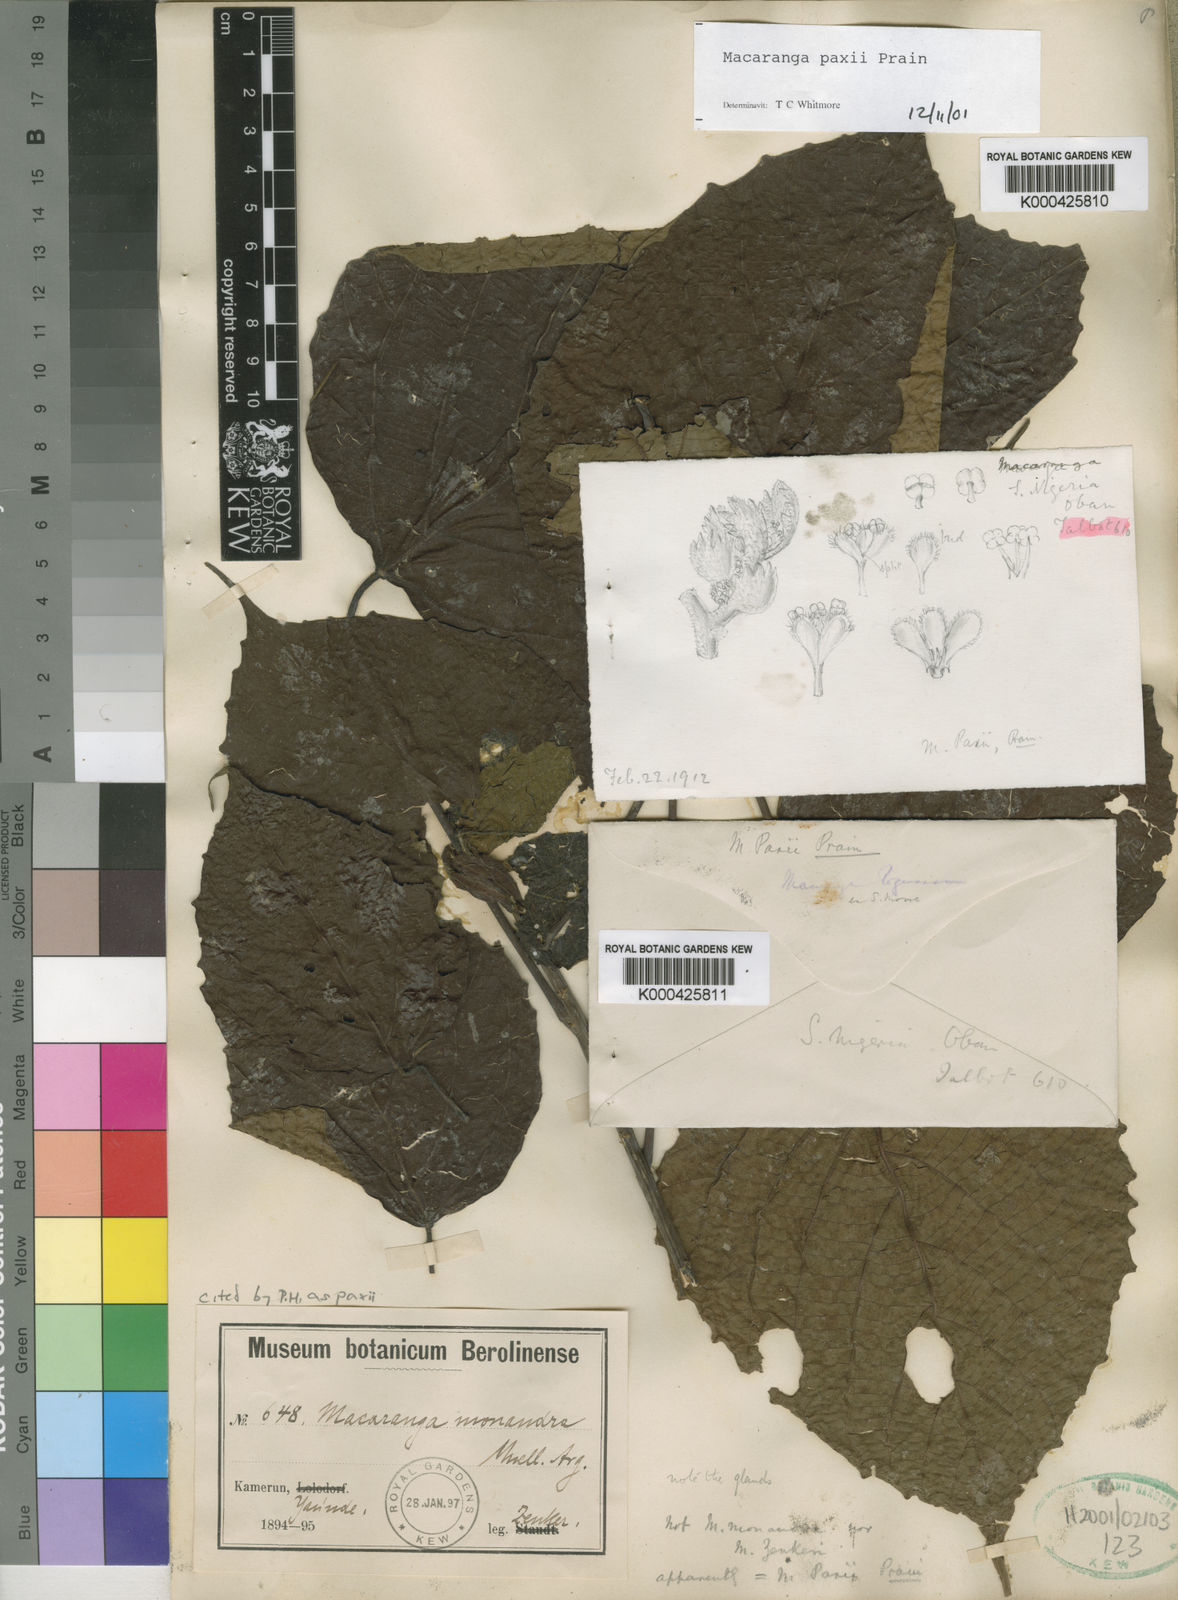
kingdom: Plantae
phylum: Tracheophyta
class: Magnoliopsida
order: Malpighiales
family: Euphorbiaceae
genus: Macaranga
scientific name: Macaranga paxii
